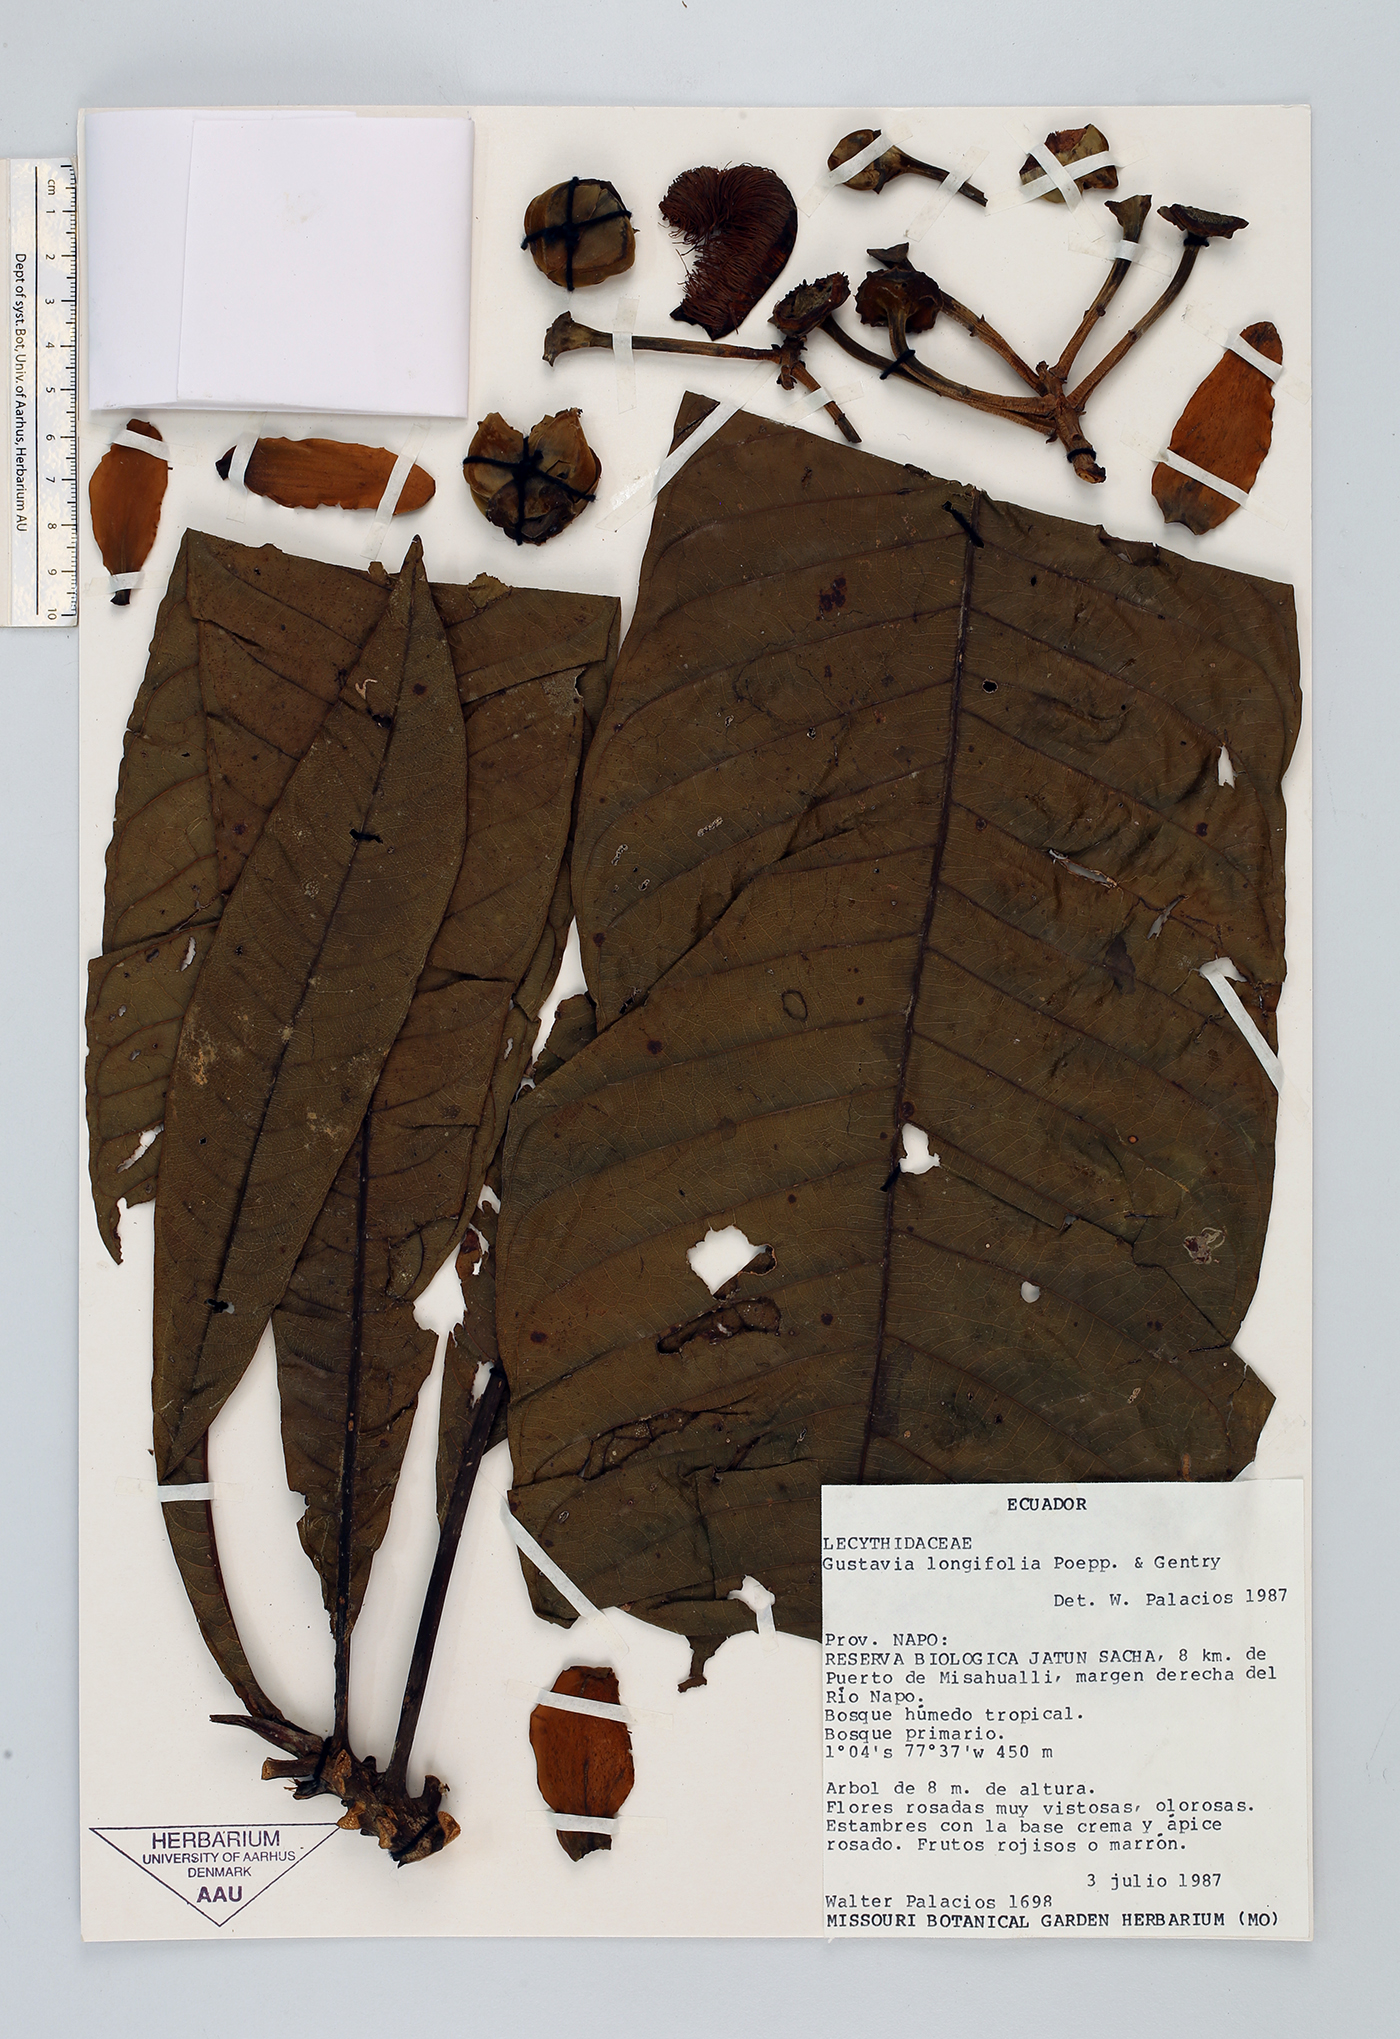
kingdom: Plantae
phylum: Tracheophyta
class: Magnoliopsida
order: Ericales
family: Lecythidaceae
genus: Gustavia
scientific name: Gustavia longifolia
